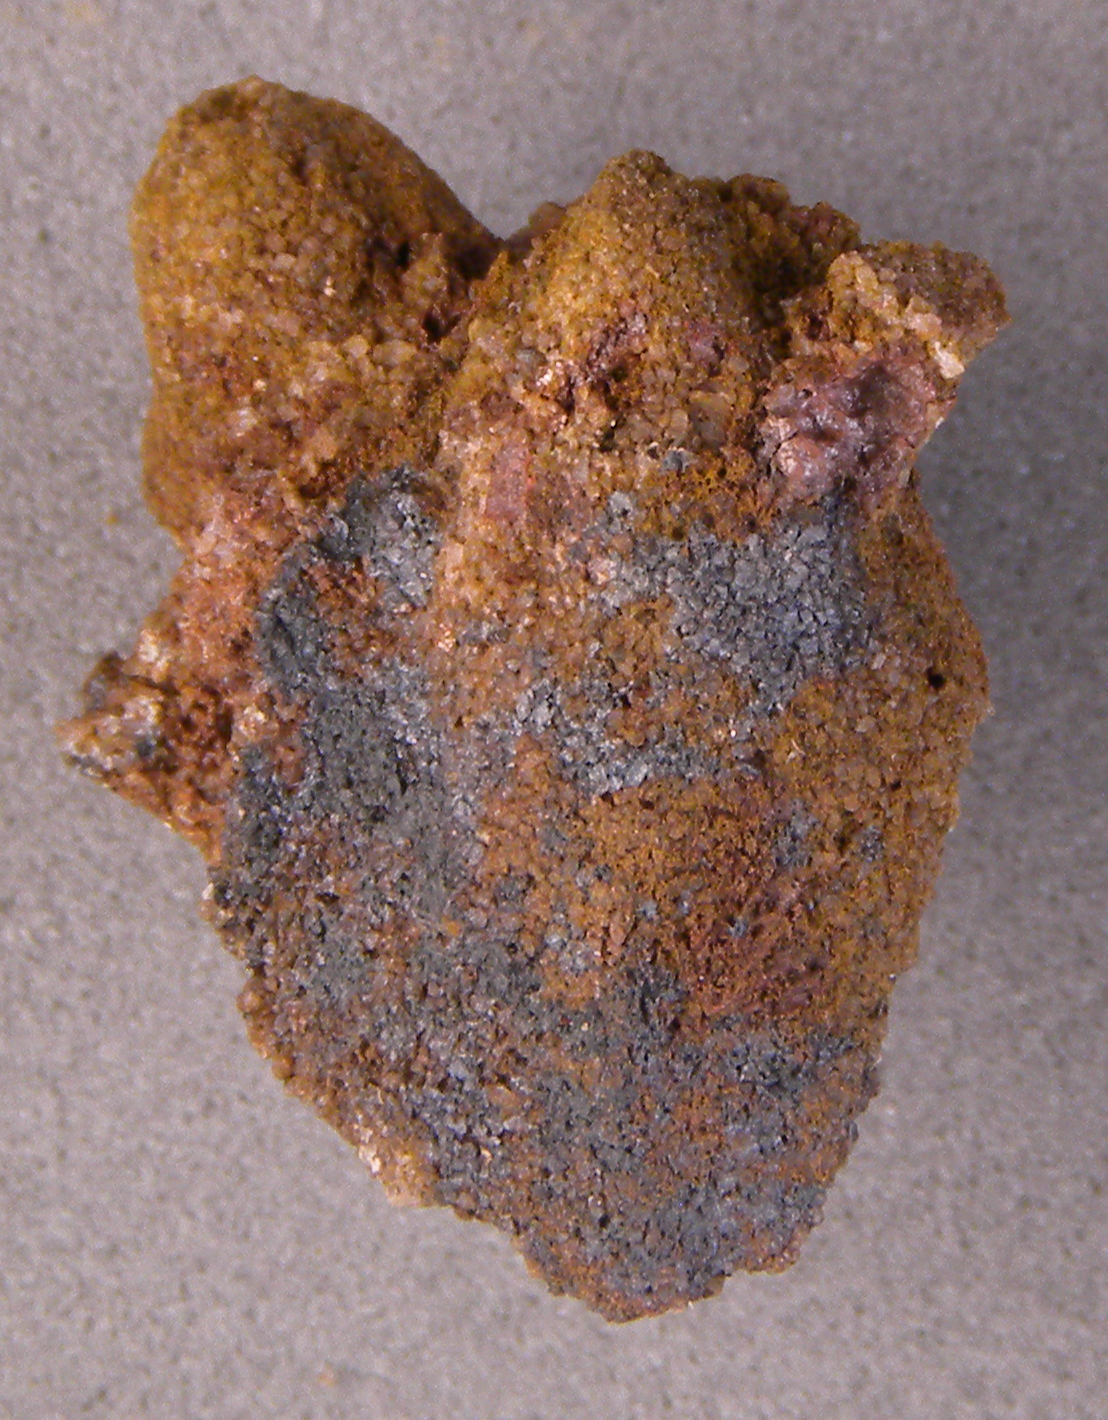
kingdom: Animalia
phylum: Mollusca
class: Bivalvia
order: Modiomorphida
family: Modiomorphidae
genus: Modiomorpha
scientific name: Modiomorpha
